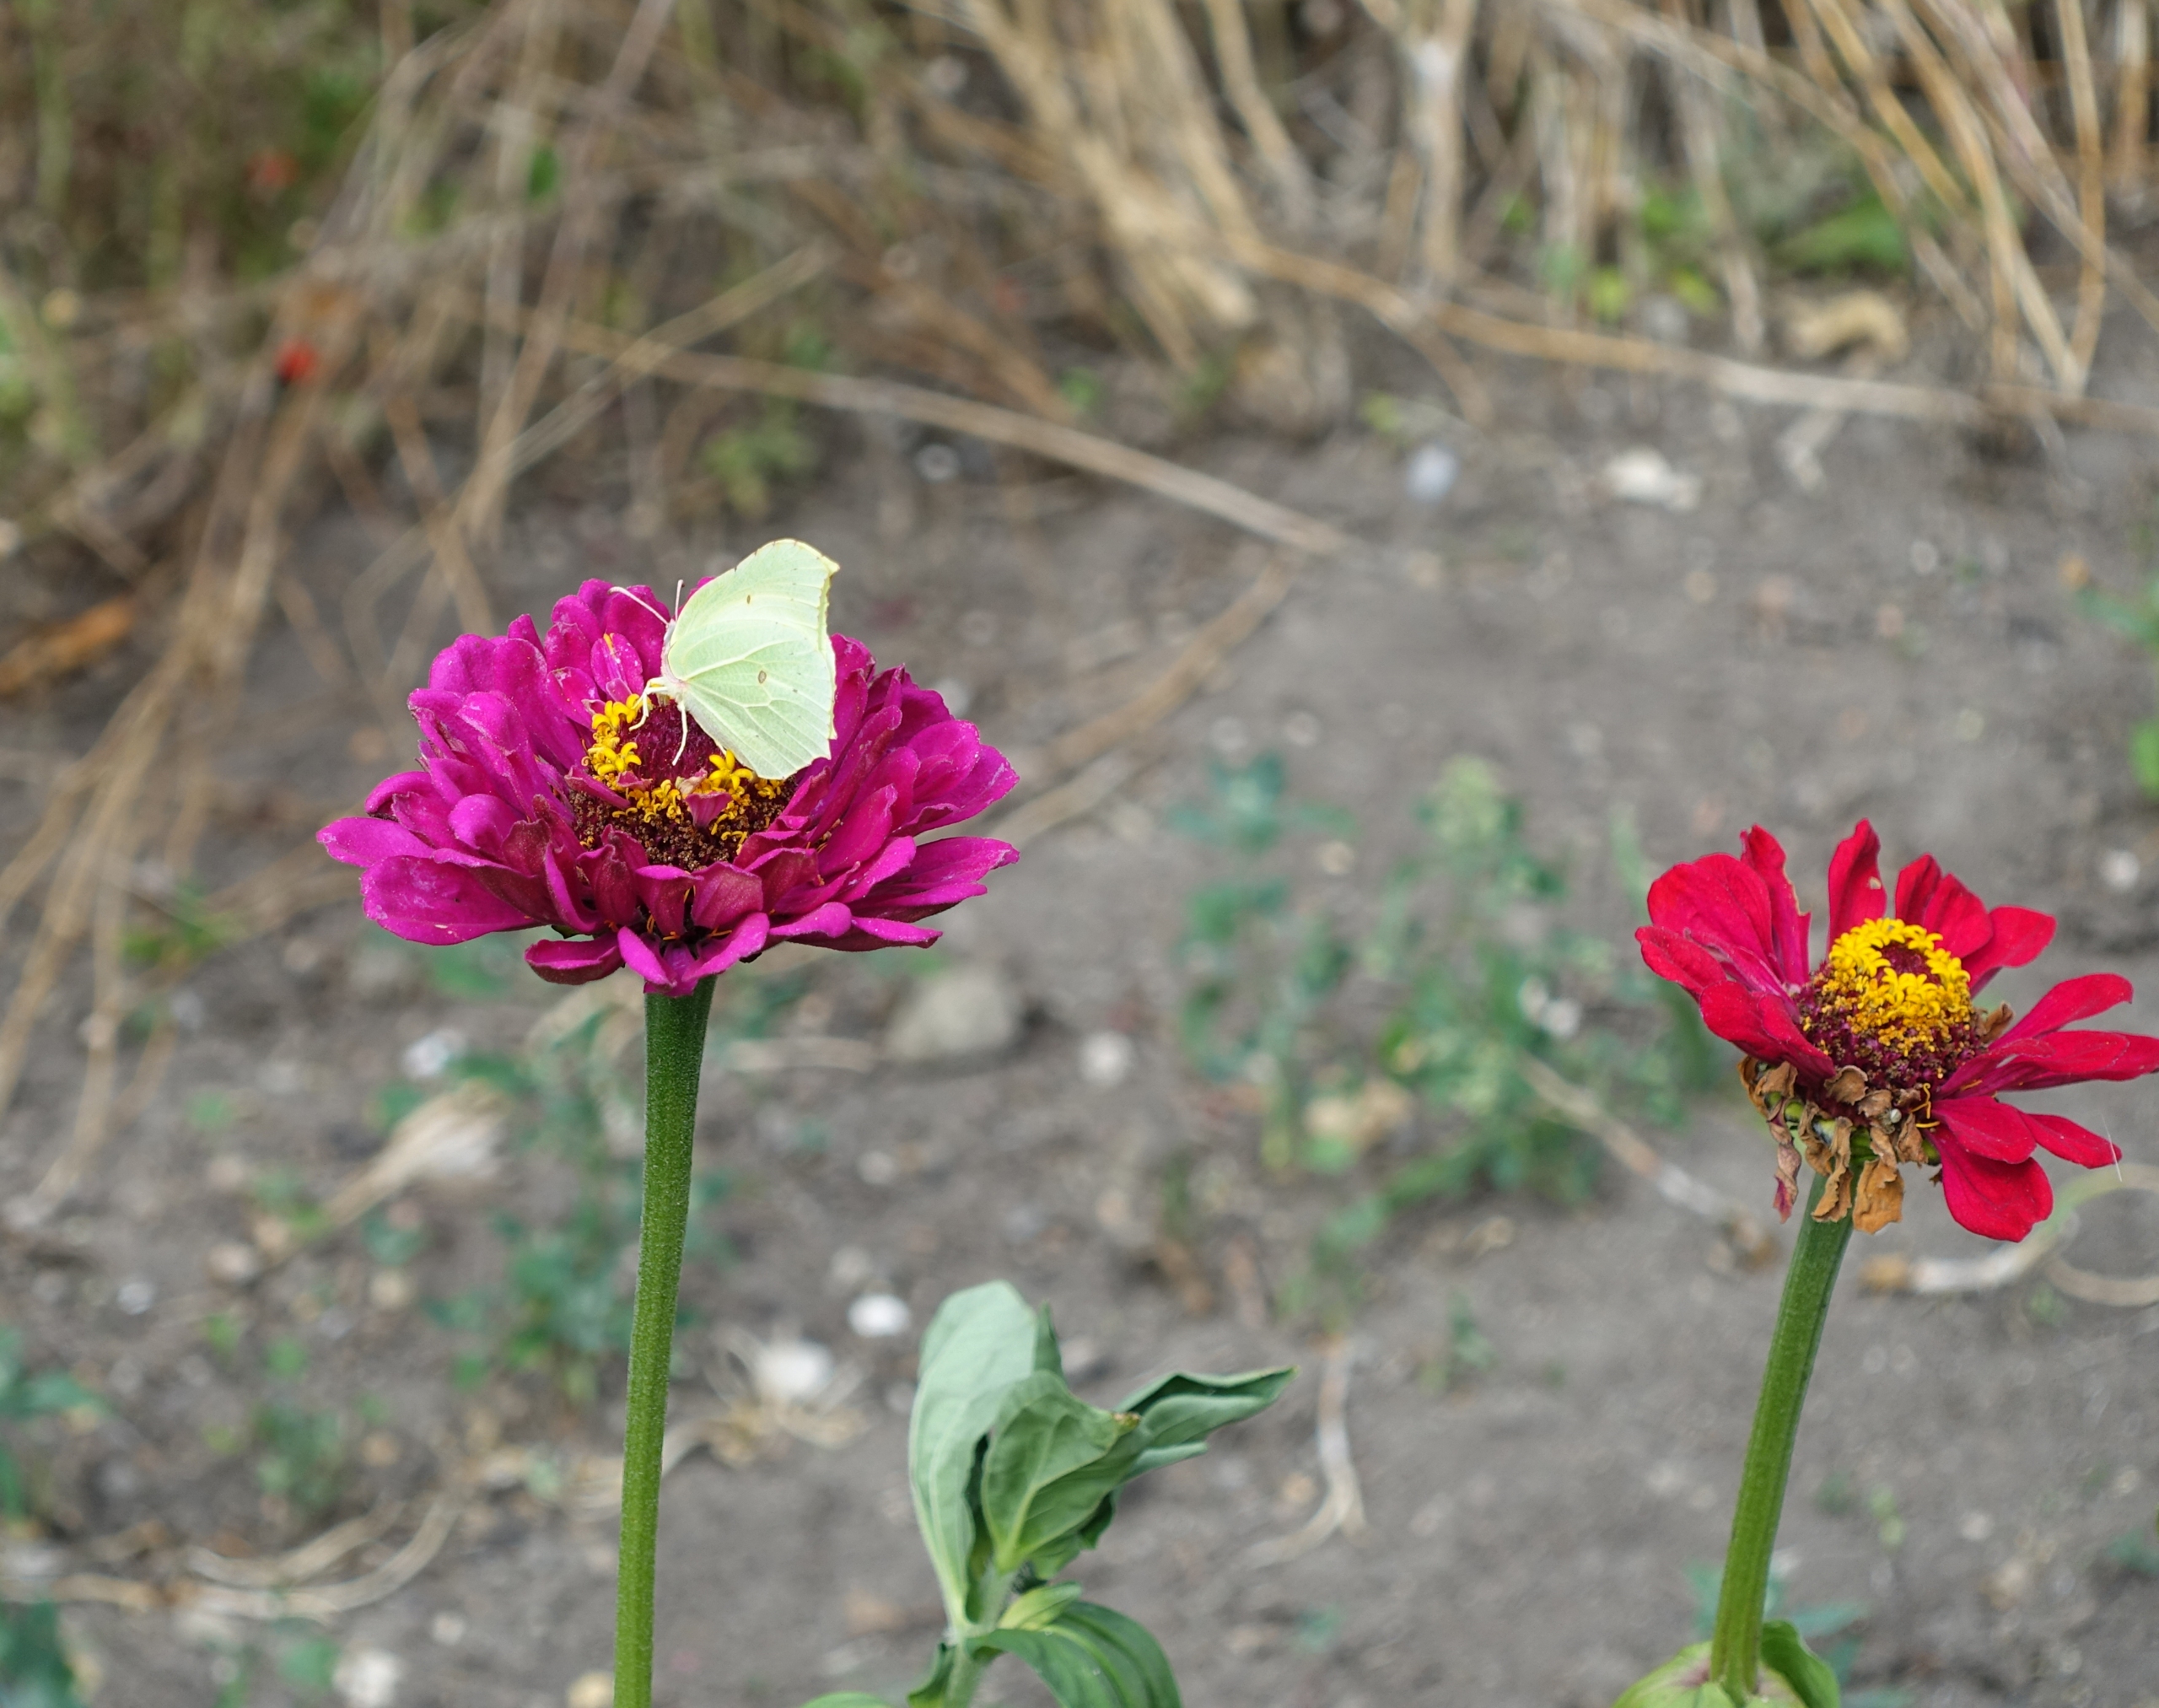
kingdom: Animalia
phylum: Arthropoda
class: Insecta
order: Lepidoptera
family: Pieridae
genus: Gonepteryx
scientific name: Gonepteryx rhamni
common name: Citronsommerfugl
